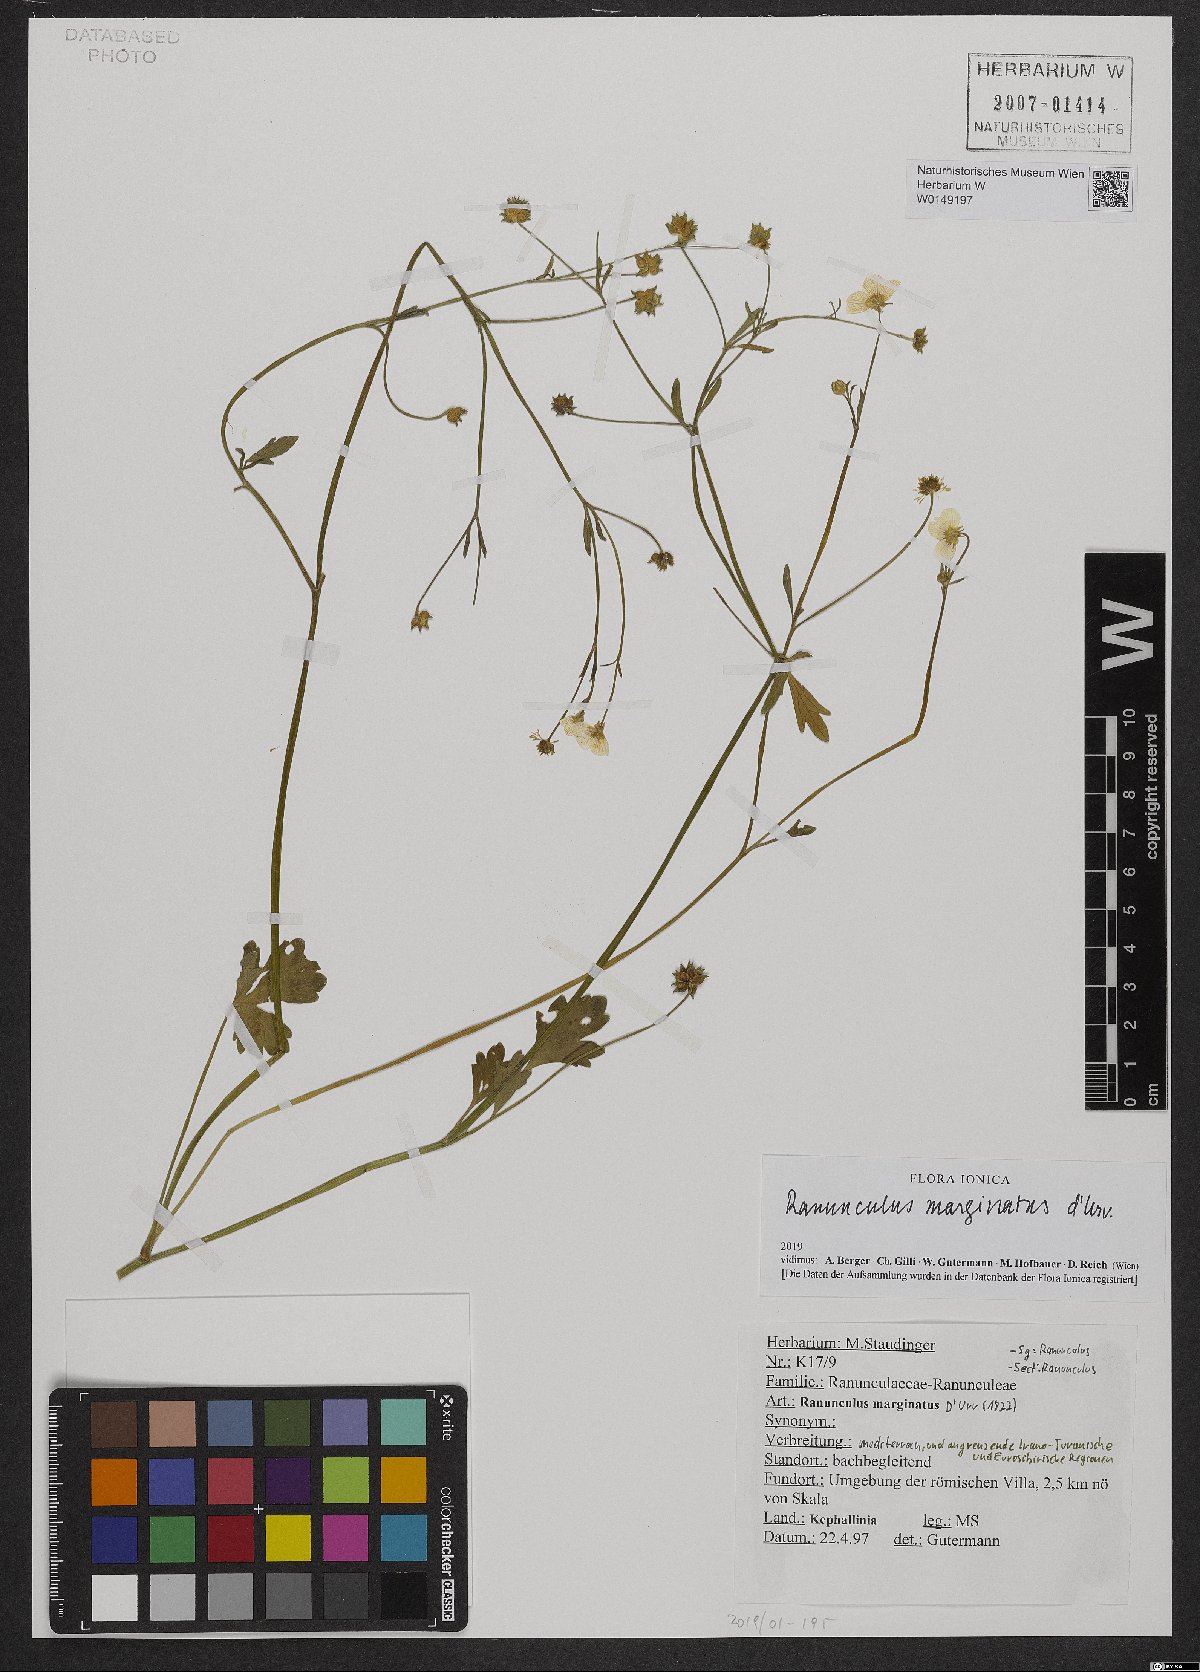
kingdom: Plantae
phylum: Tracheophyta
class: Magnoliopsida
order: Ranunculales
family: Ranunculaceae
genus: Ranunculus
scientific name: Ranunculus marginatus
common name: St. martin's buttercup
